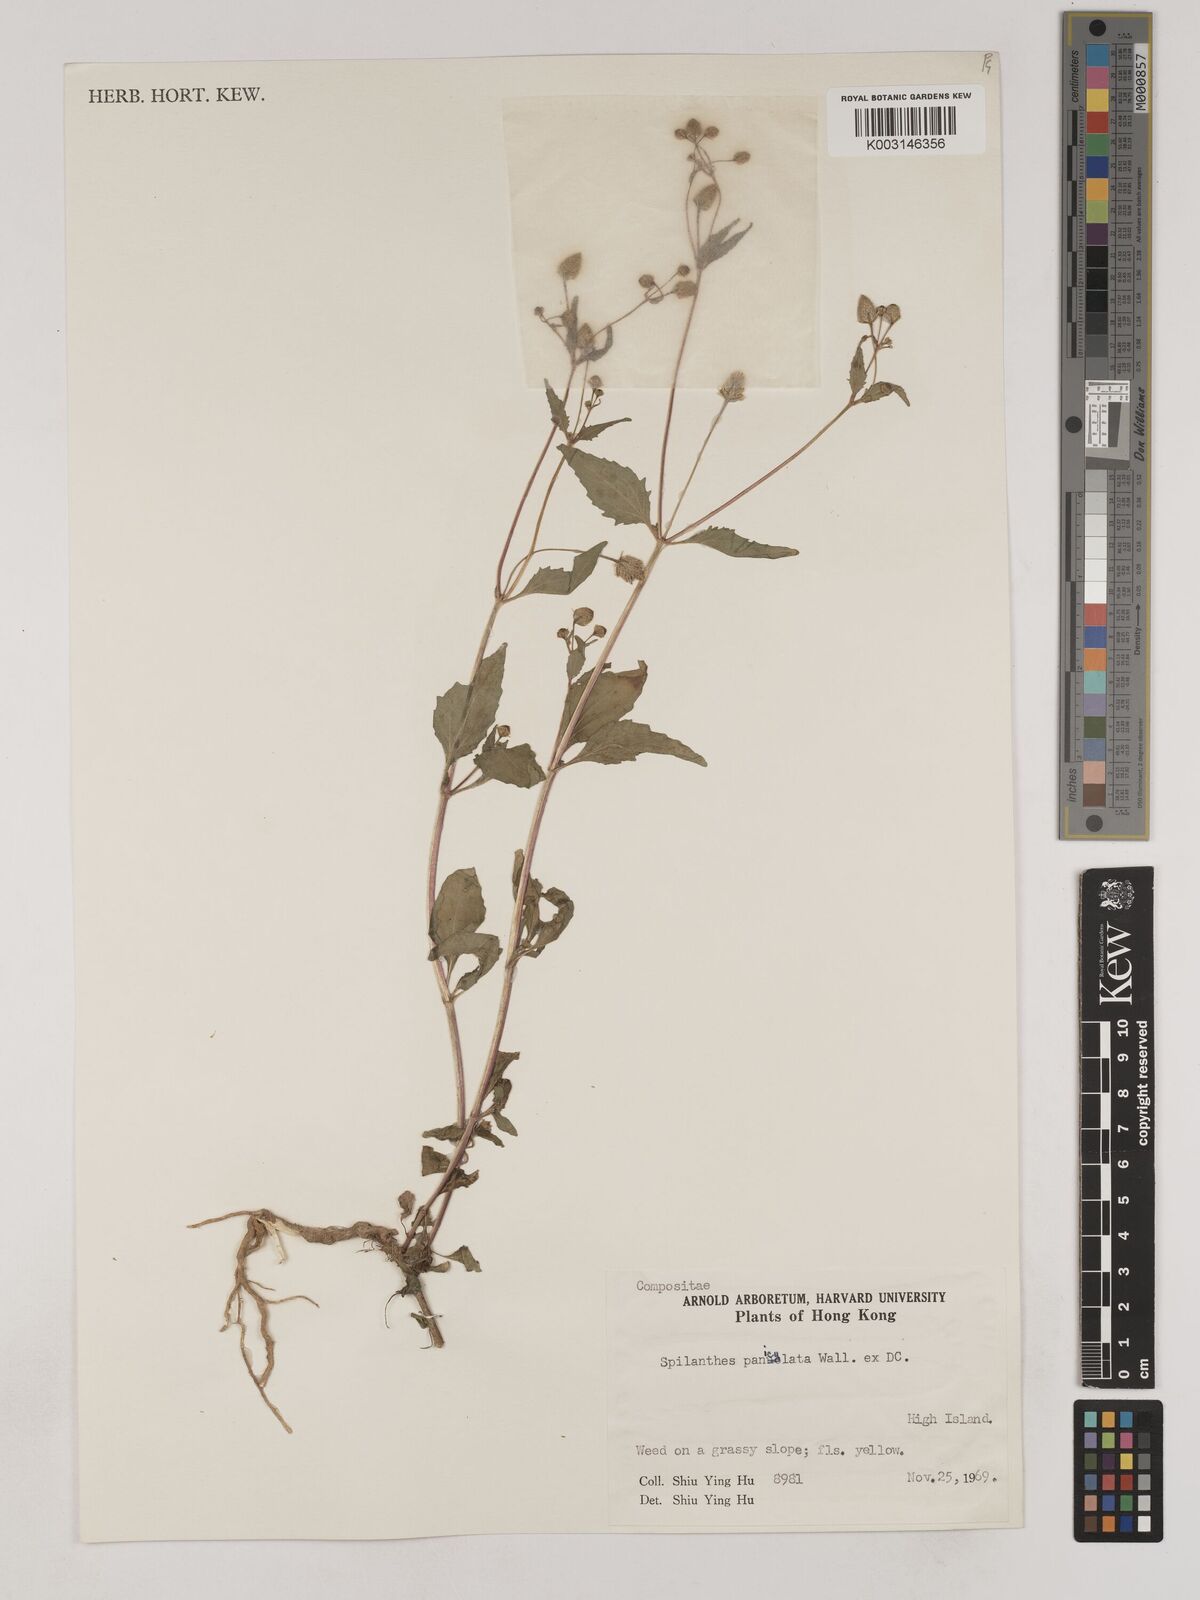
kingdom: Plantae
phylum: Tracheophyta
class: Magnoliopsida
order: Asterales
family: Asteraceae
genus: Acmella
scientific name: Acmella paniculata
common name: Panicled spot flower
